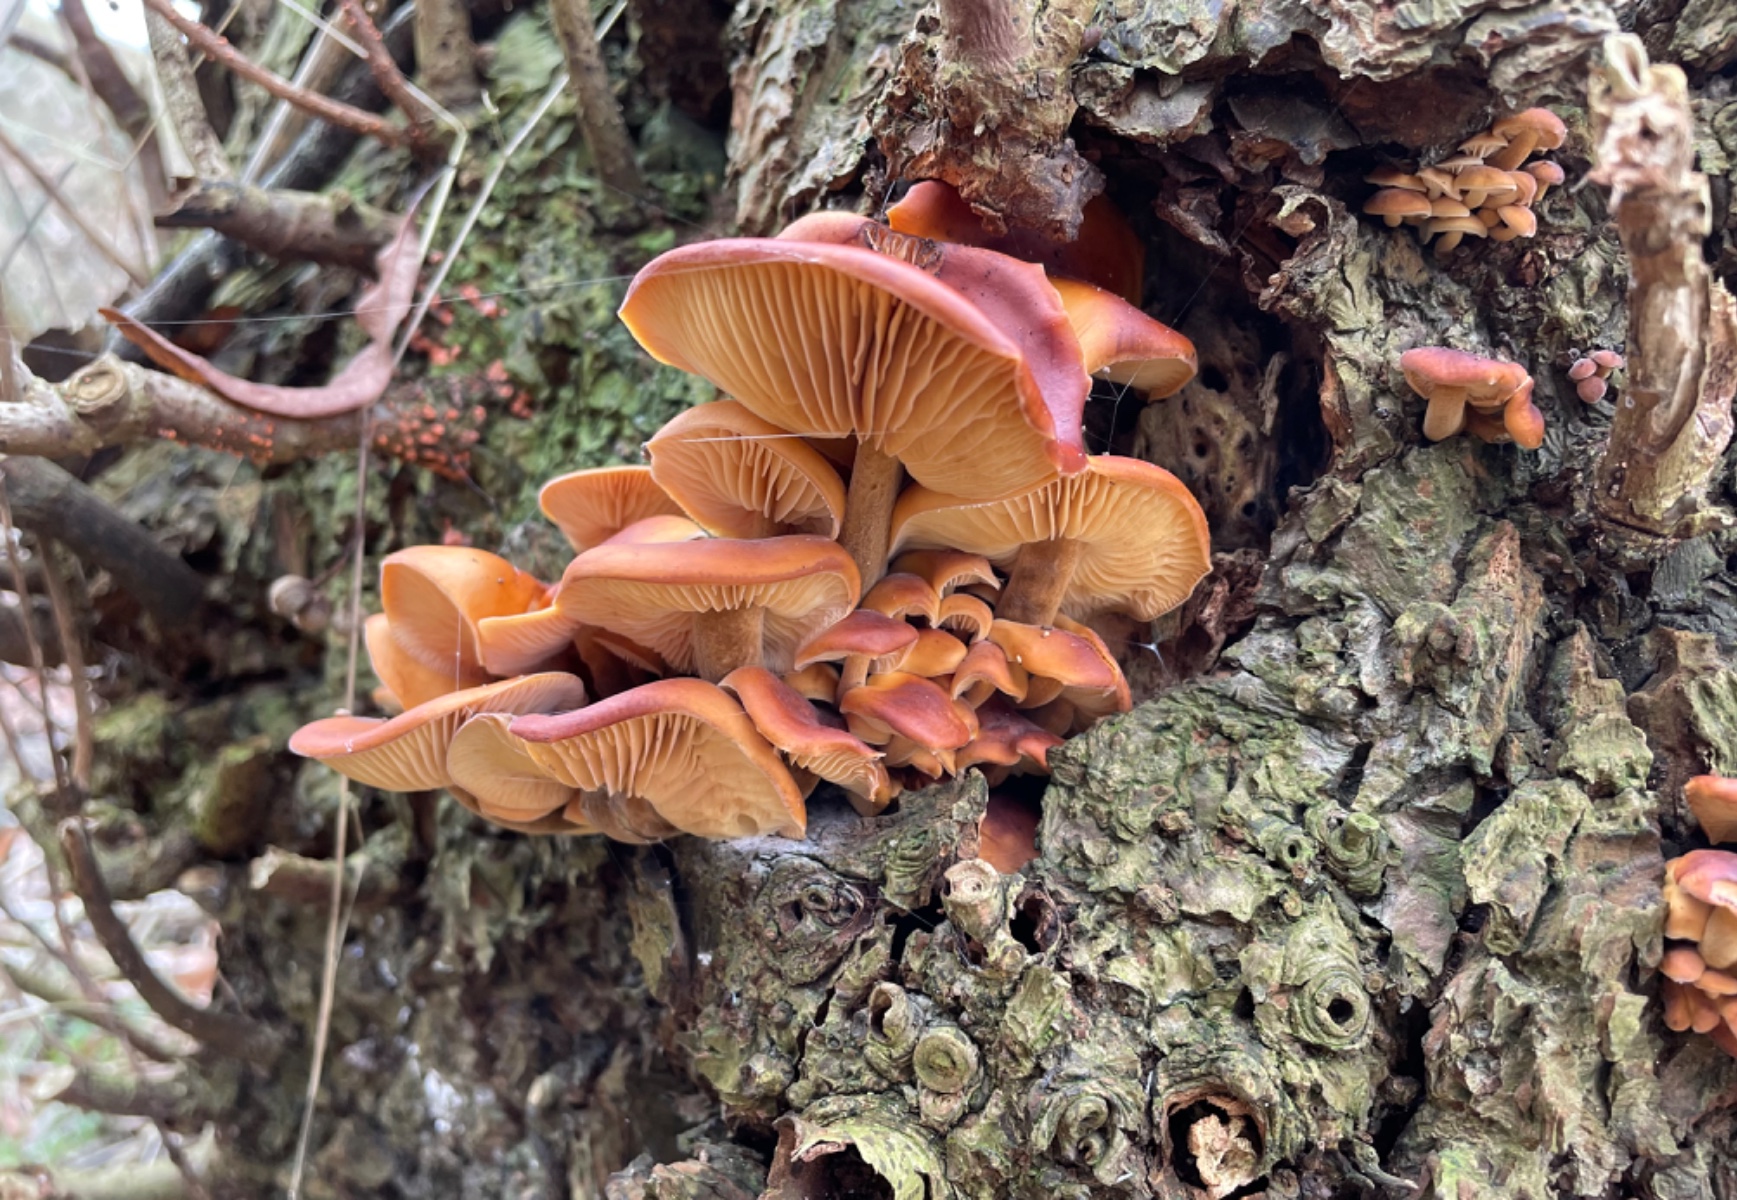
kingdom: Fungi
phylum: Basidiomycota
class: Agaricomycetes
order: Agaricales
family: Physalacriaceae
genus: Flammulina
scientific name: Flammulina velutipes
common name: gul fløjlsfod
